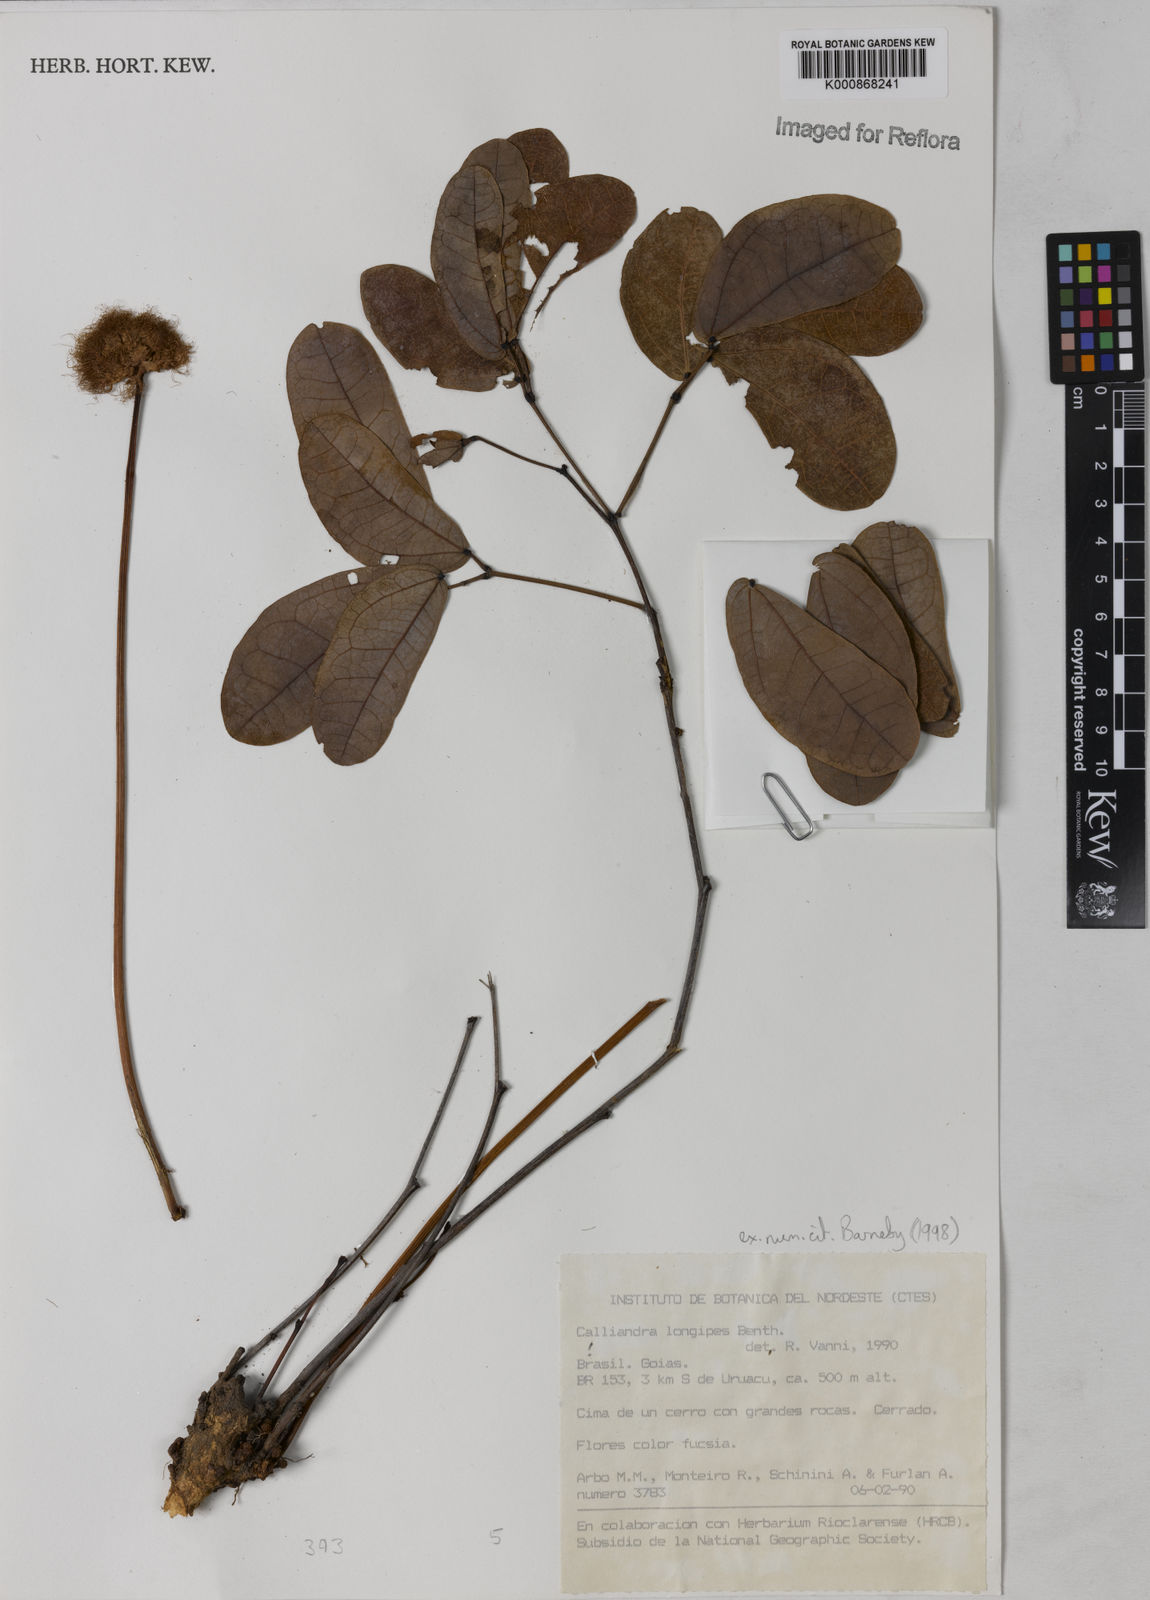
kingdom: Plantae
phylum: Tracheophyta
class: Magnoliopsida
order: Fabales
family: Fabaceae
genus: Calliandra
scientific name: Calliandra longipes
